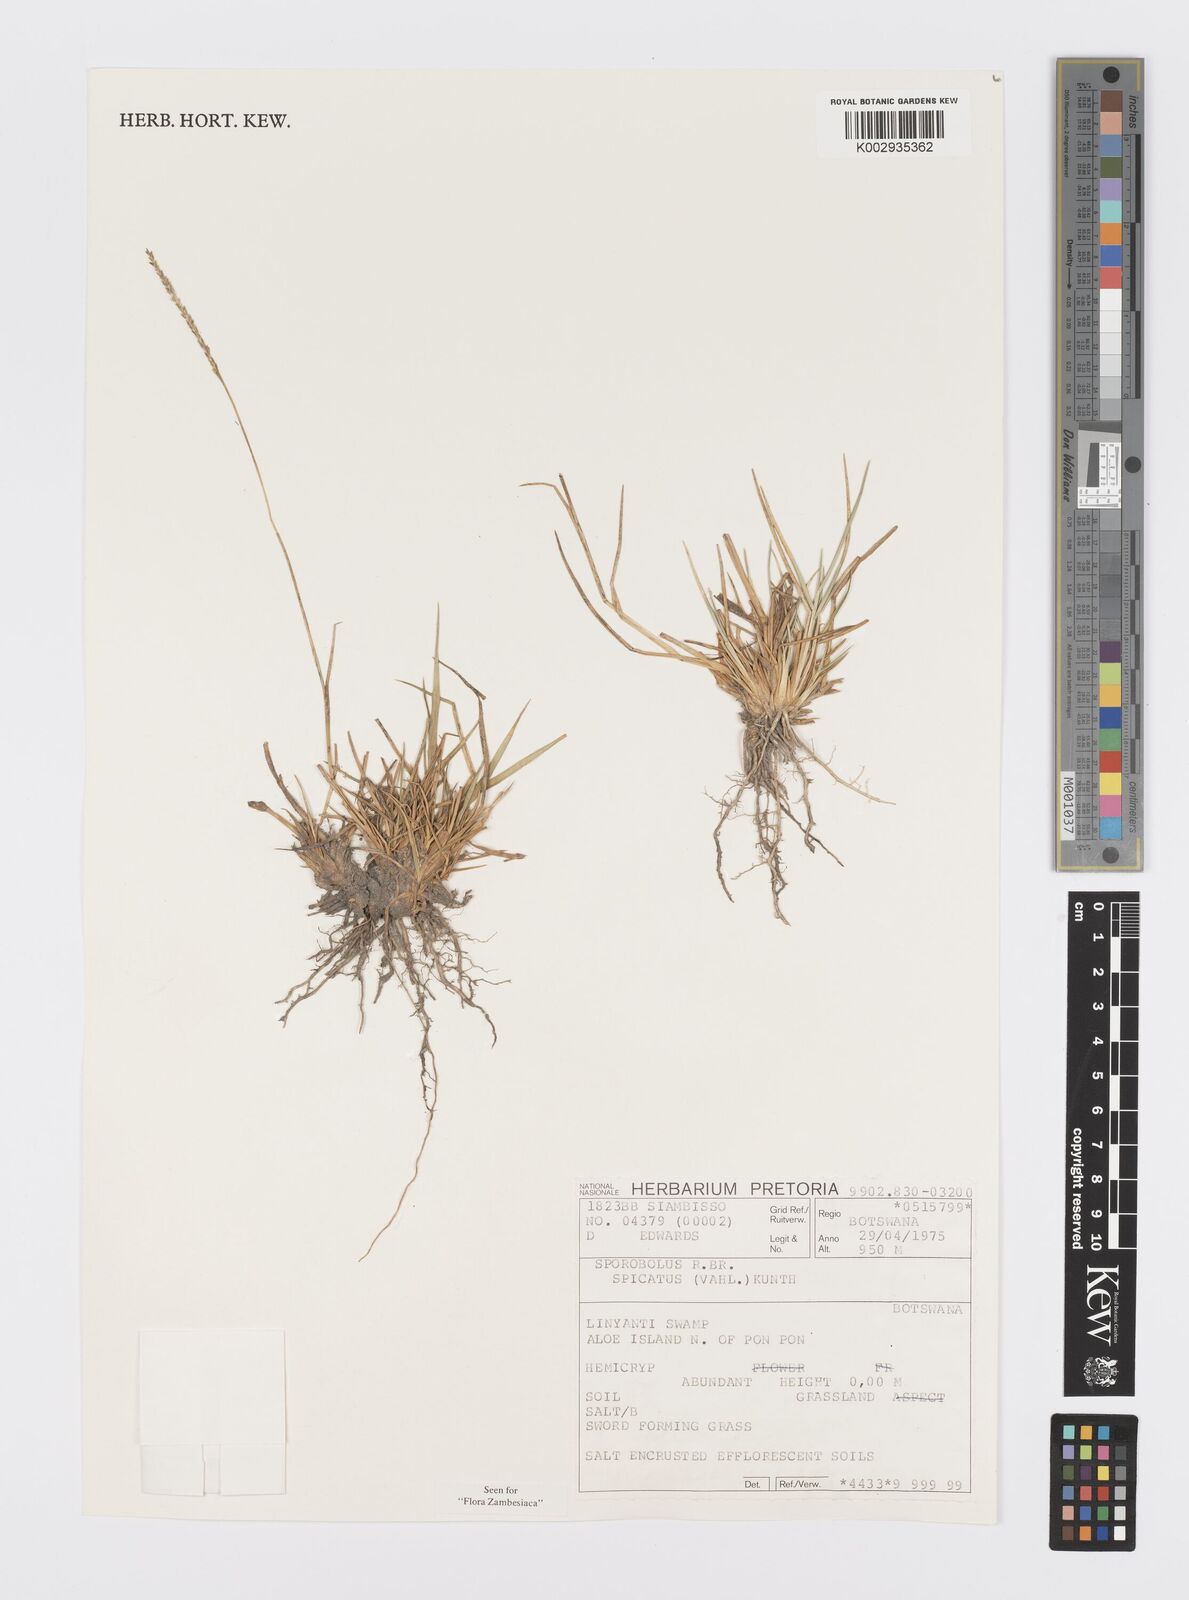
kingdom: Plantae
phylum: Tracheophyta
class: Liliopsida
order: Poales
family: Poaceae
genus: Sporobolus
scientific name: Sporobolus spicatus
